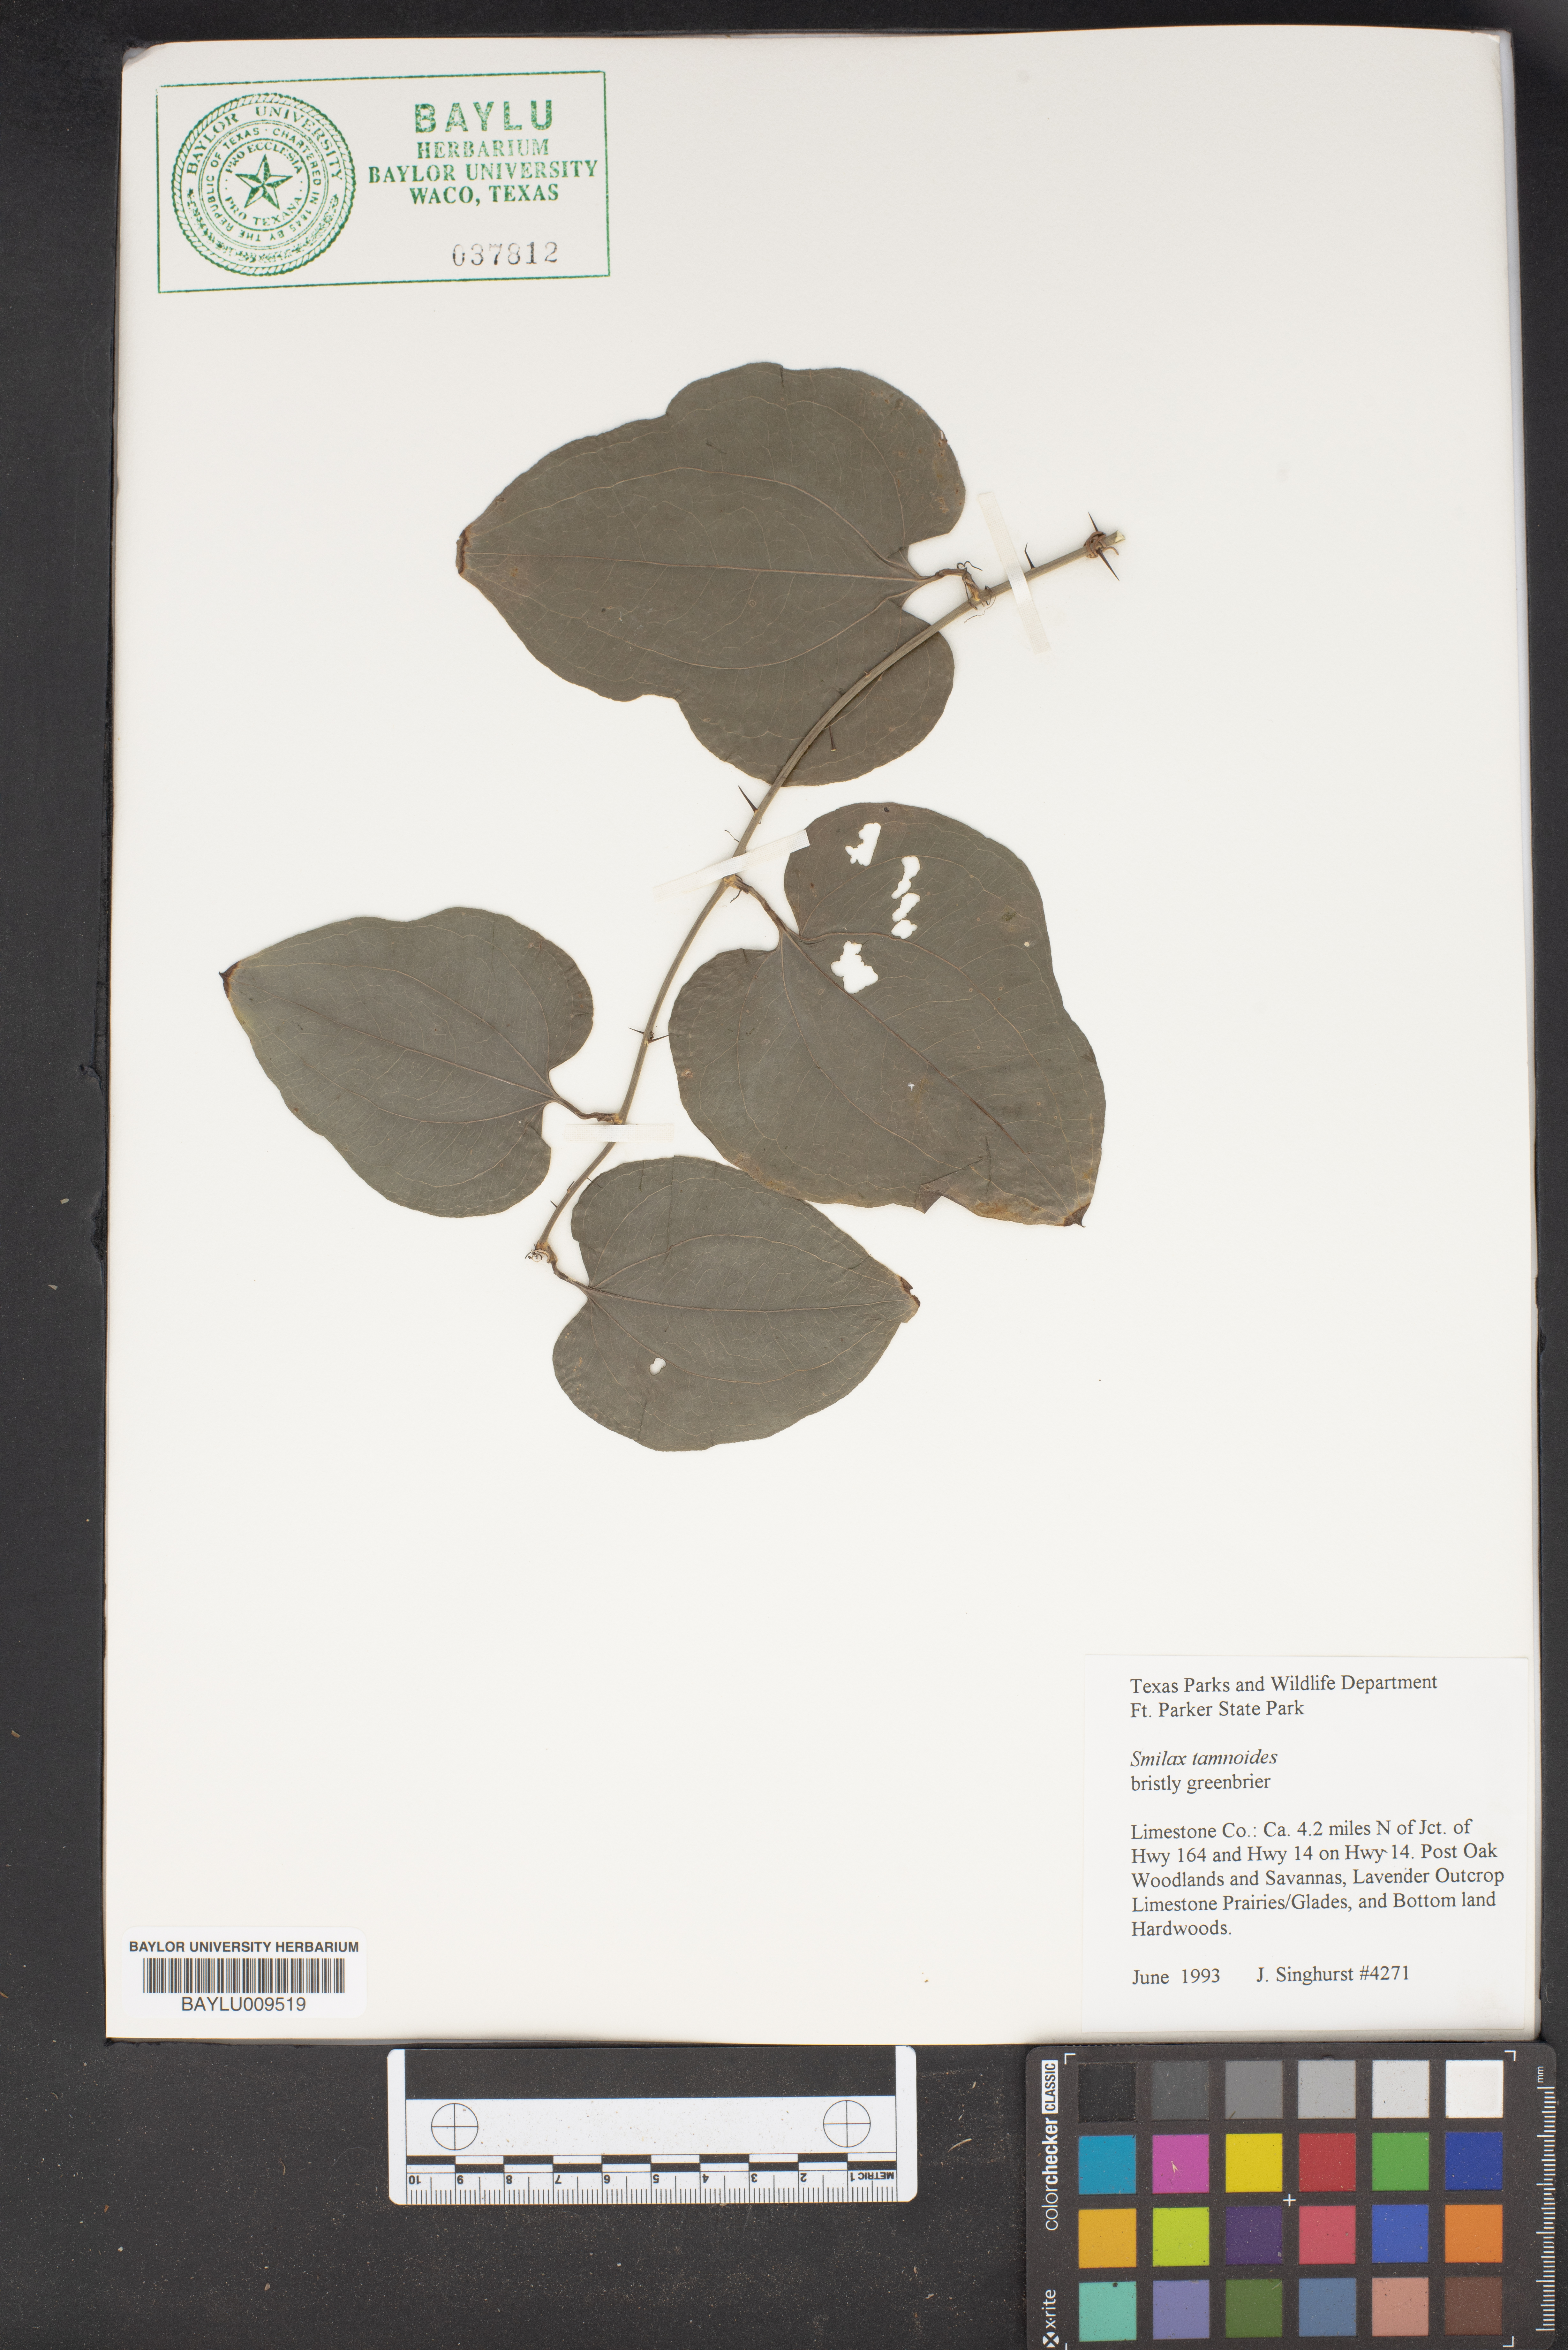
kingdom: Plantae
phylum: Tracheophyta
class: Liliopsida
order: Liliales
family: Smilacaceae
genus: Smilax
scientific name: Smilax tamnoides
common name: Hellfetter
